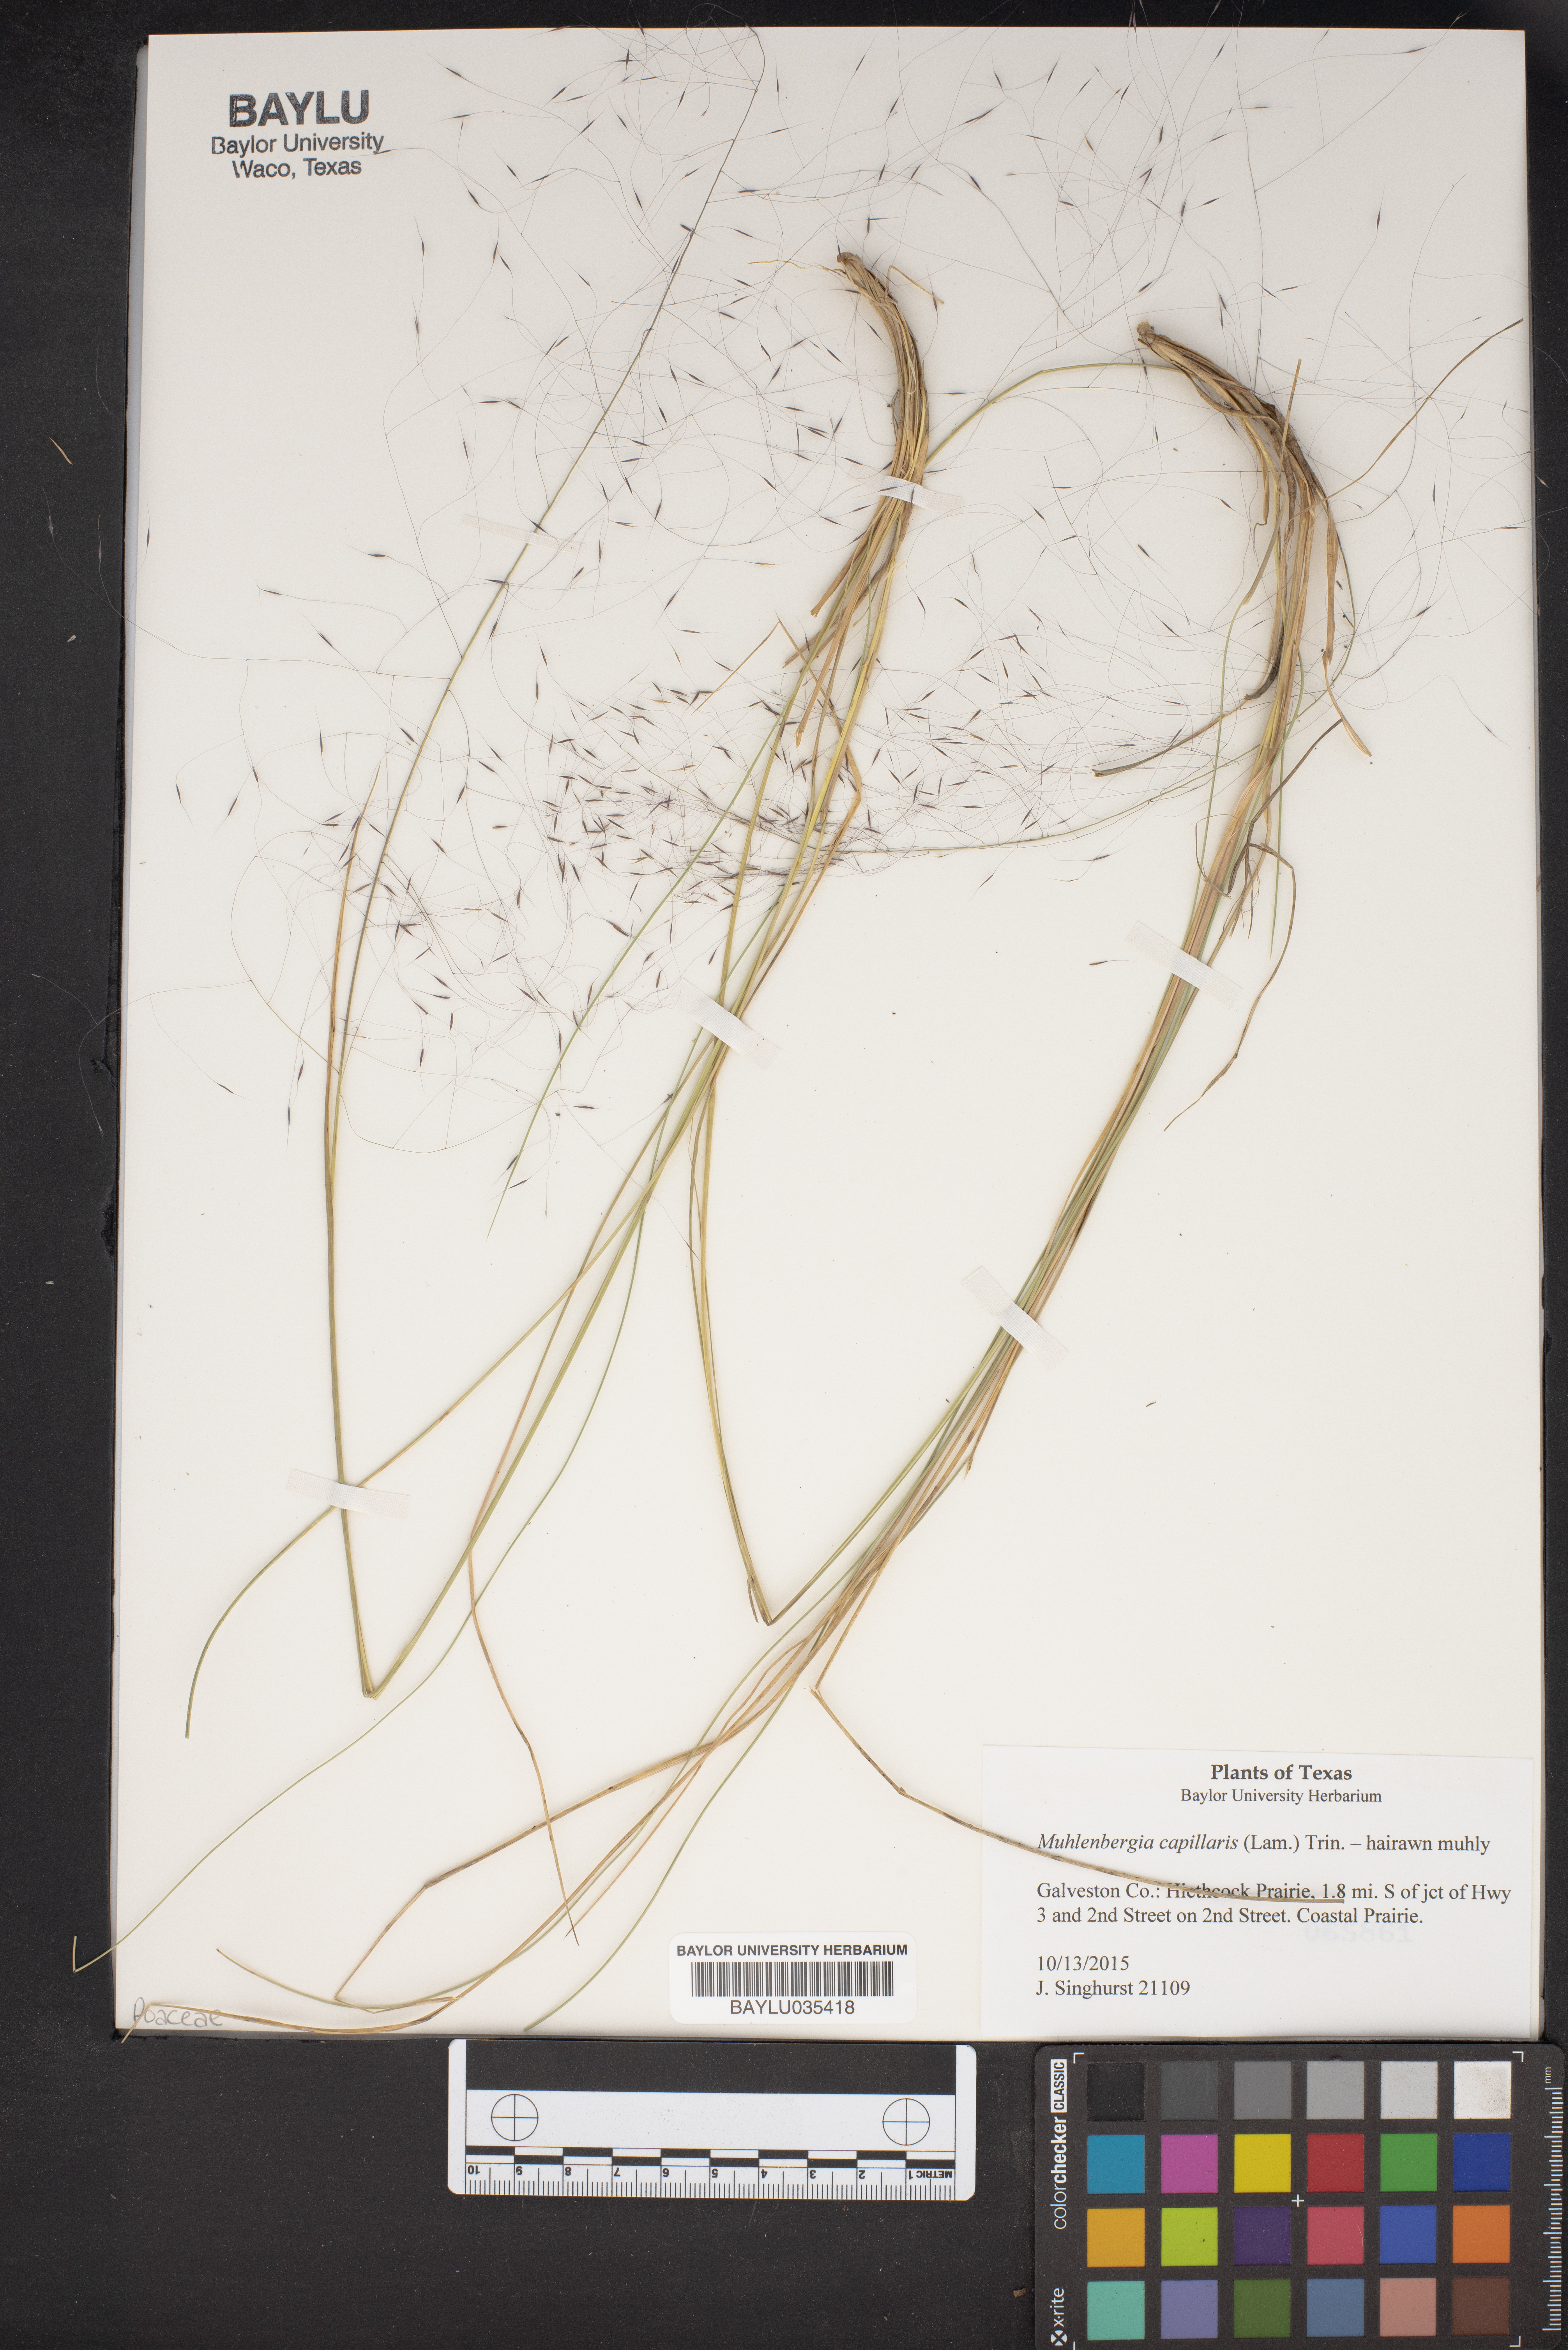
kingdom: Plantae
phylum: Tracheophyta
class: Liliopsida
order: Poales
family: Poaceae
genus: Muhlenbergia
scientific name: Muhlenbergia capillaris
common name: Purple grass
